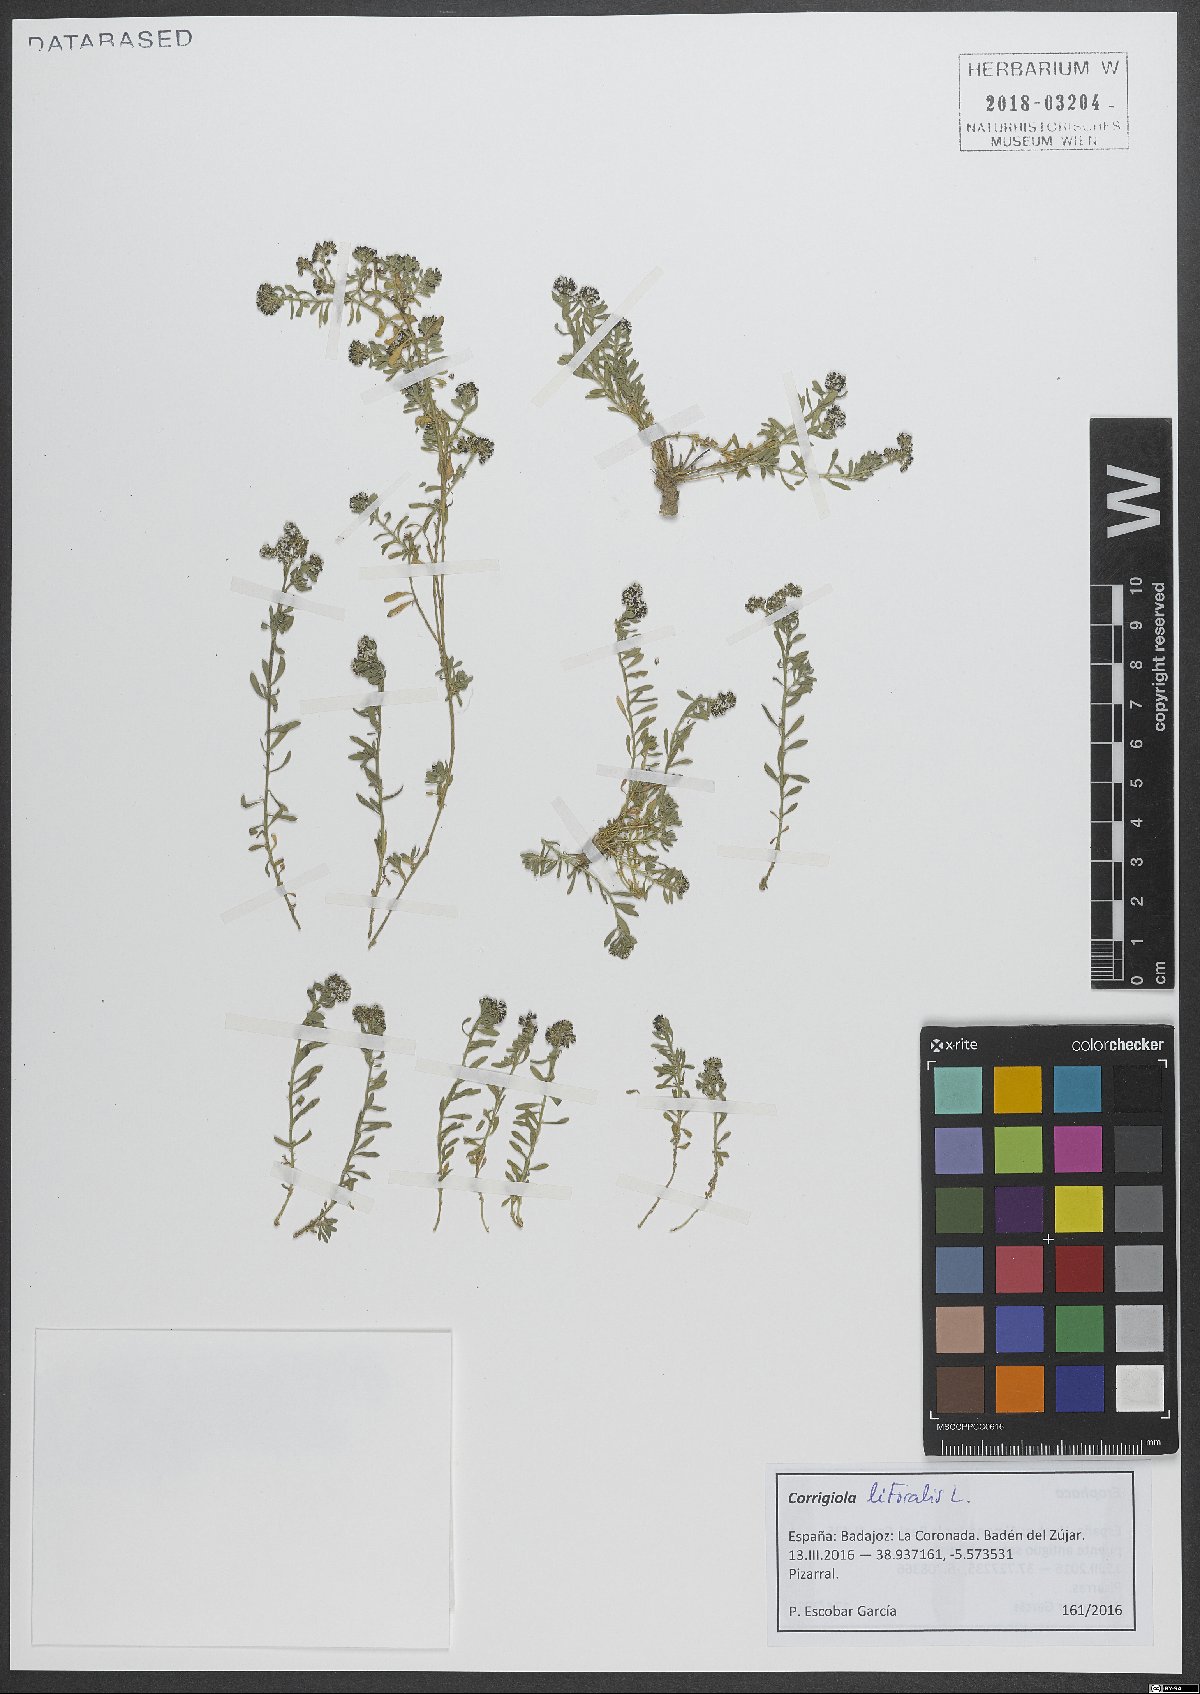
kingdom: Plantae
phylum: Tracheophyta
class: Magnoliopsida
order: Caryophyllales
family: Caryophyllaceae
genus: Corrigiola
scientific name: Corrigiola litoralis
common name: Strapwort
